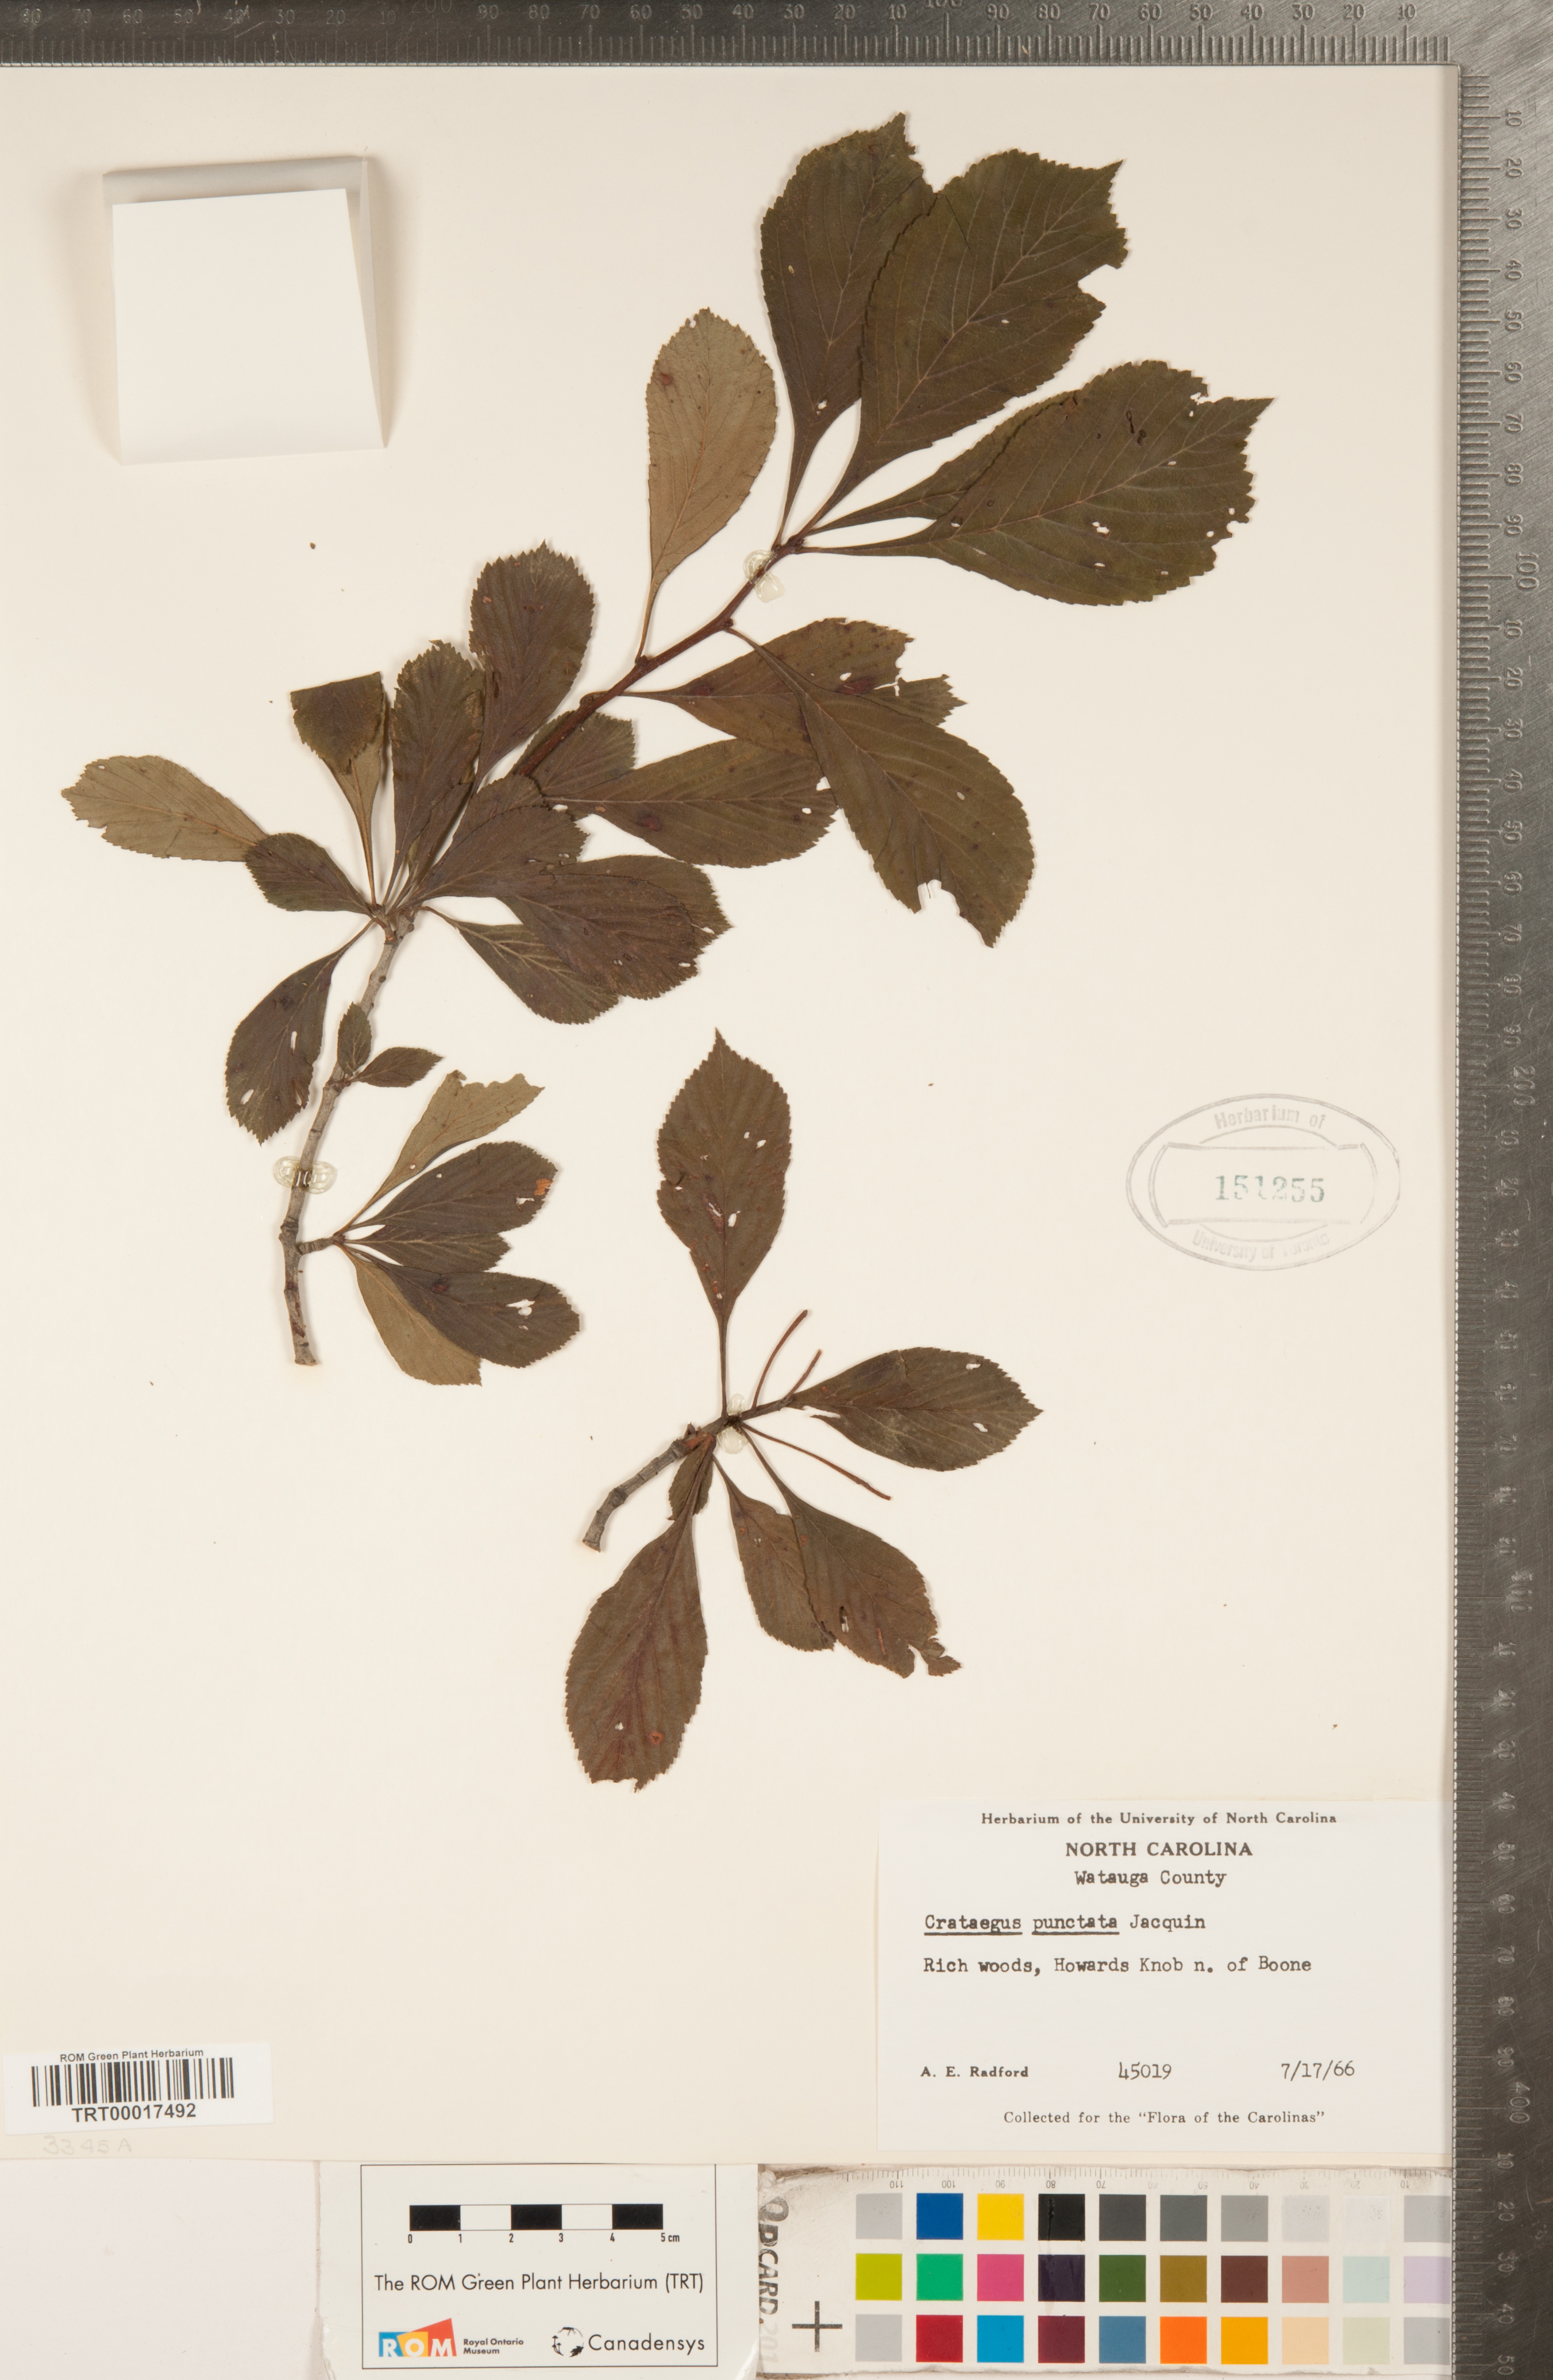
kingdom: Plantae
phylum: Tracheophyta
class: Magnoliopsida
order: Rosales
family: Rosaceae
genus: Crataegus
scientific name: Crataegus punctata
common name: Dotted hawthorn
